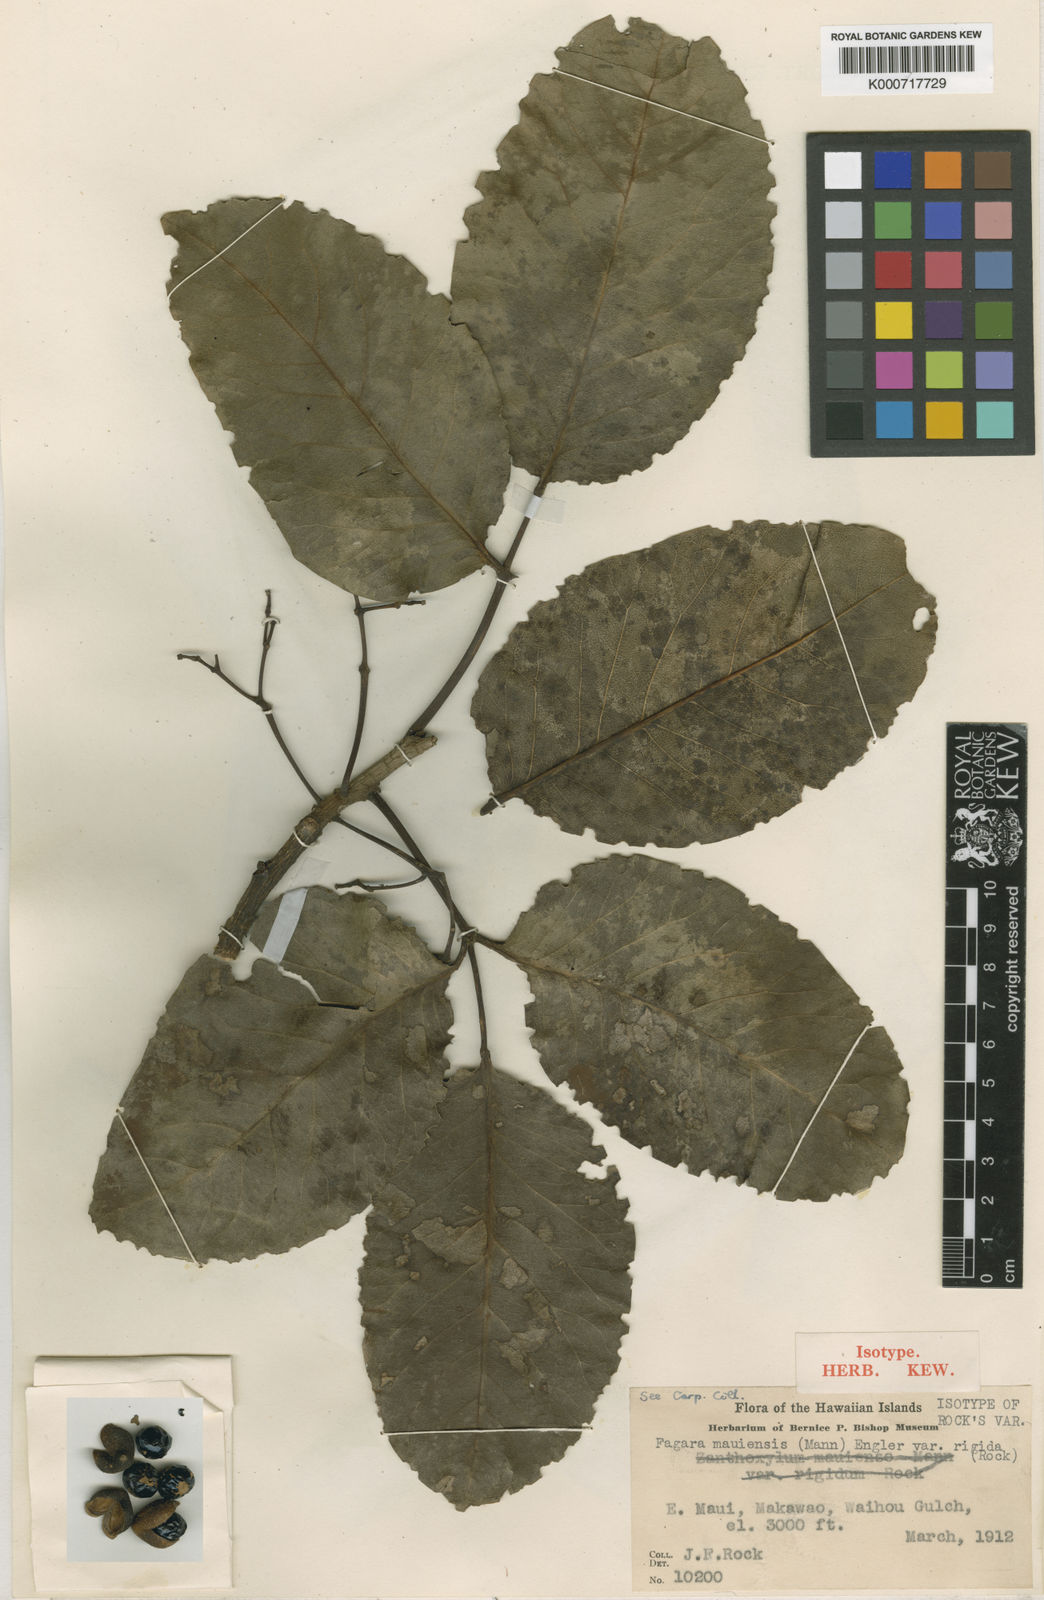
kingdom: Plantae
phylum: Tracheophyta
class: Magnoliopsida
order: Sapindales
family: Rutaceae
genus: Zanthoxylum
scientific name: Zanthoxylum kauaense
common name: Kauai prickly-ash
